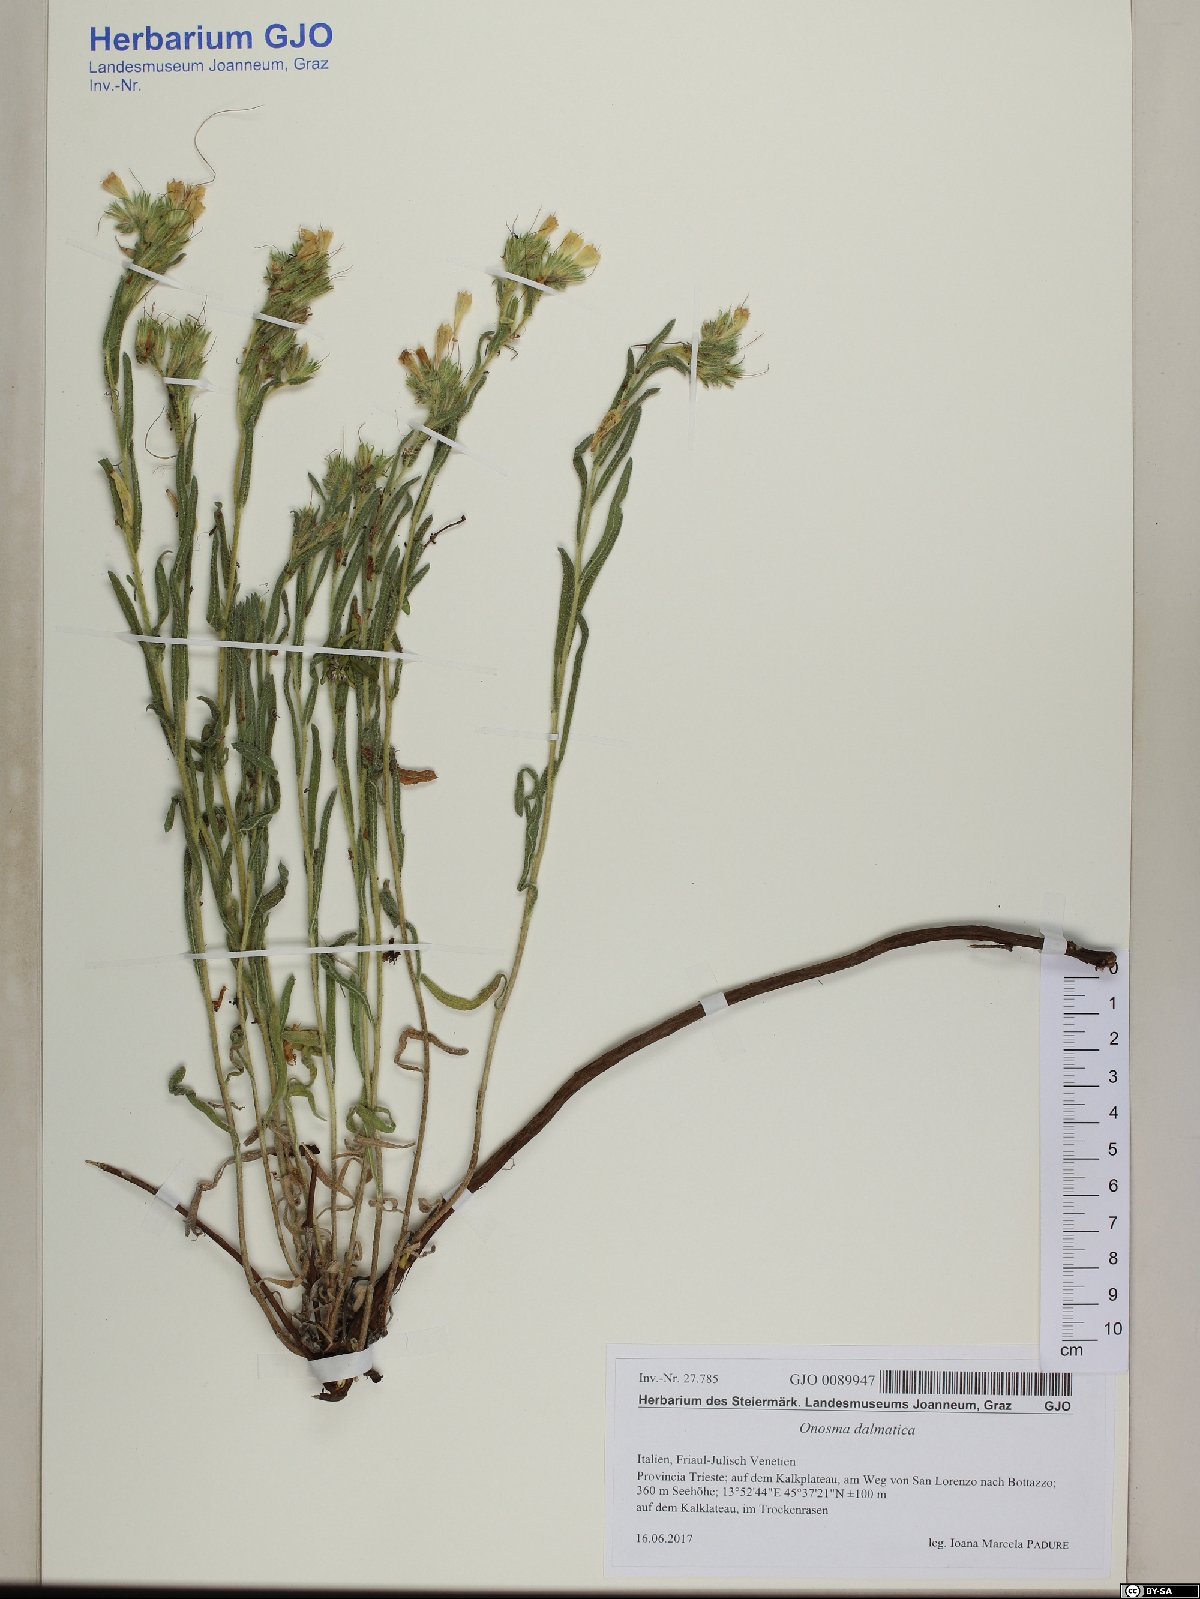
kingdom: Plantae
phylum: Tracheophyta
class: Magnoliopsida
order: Boraginales
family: Boraginaceae
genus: Onosma
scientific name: Onosma pseudoarenaria
